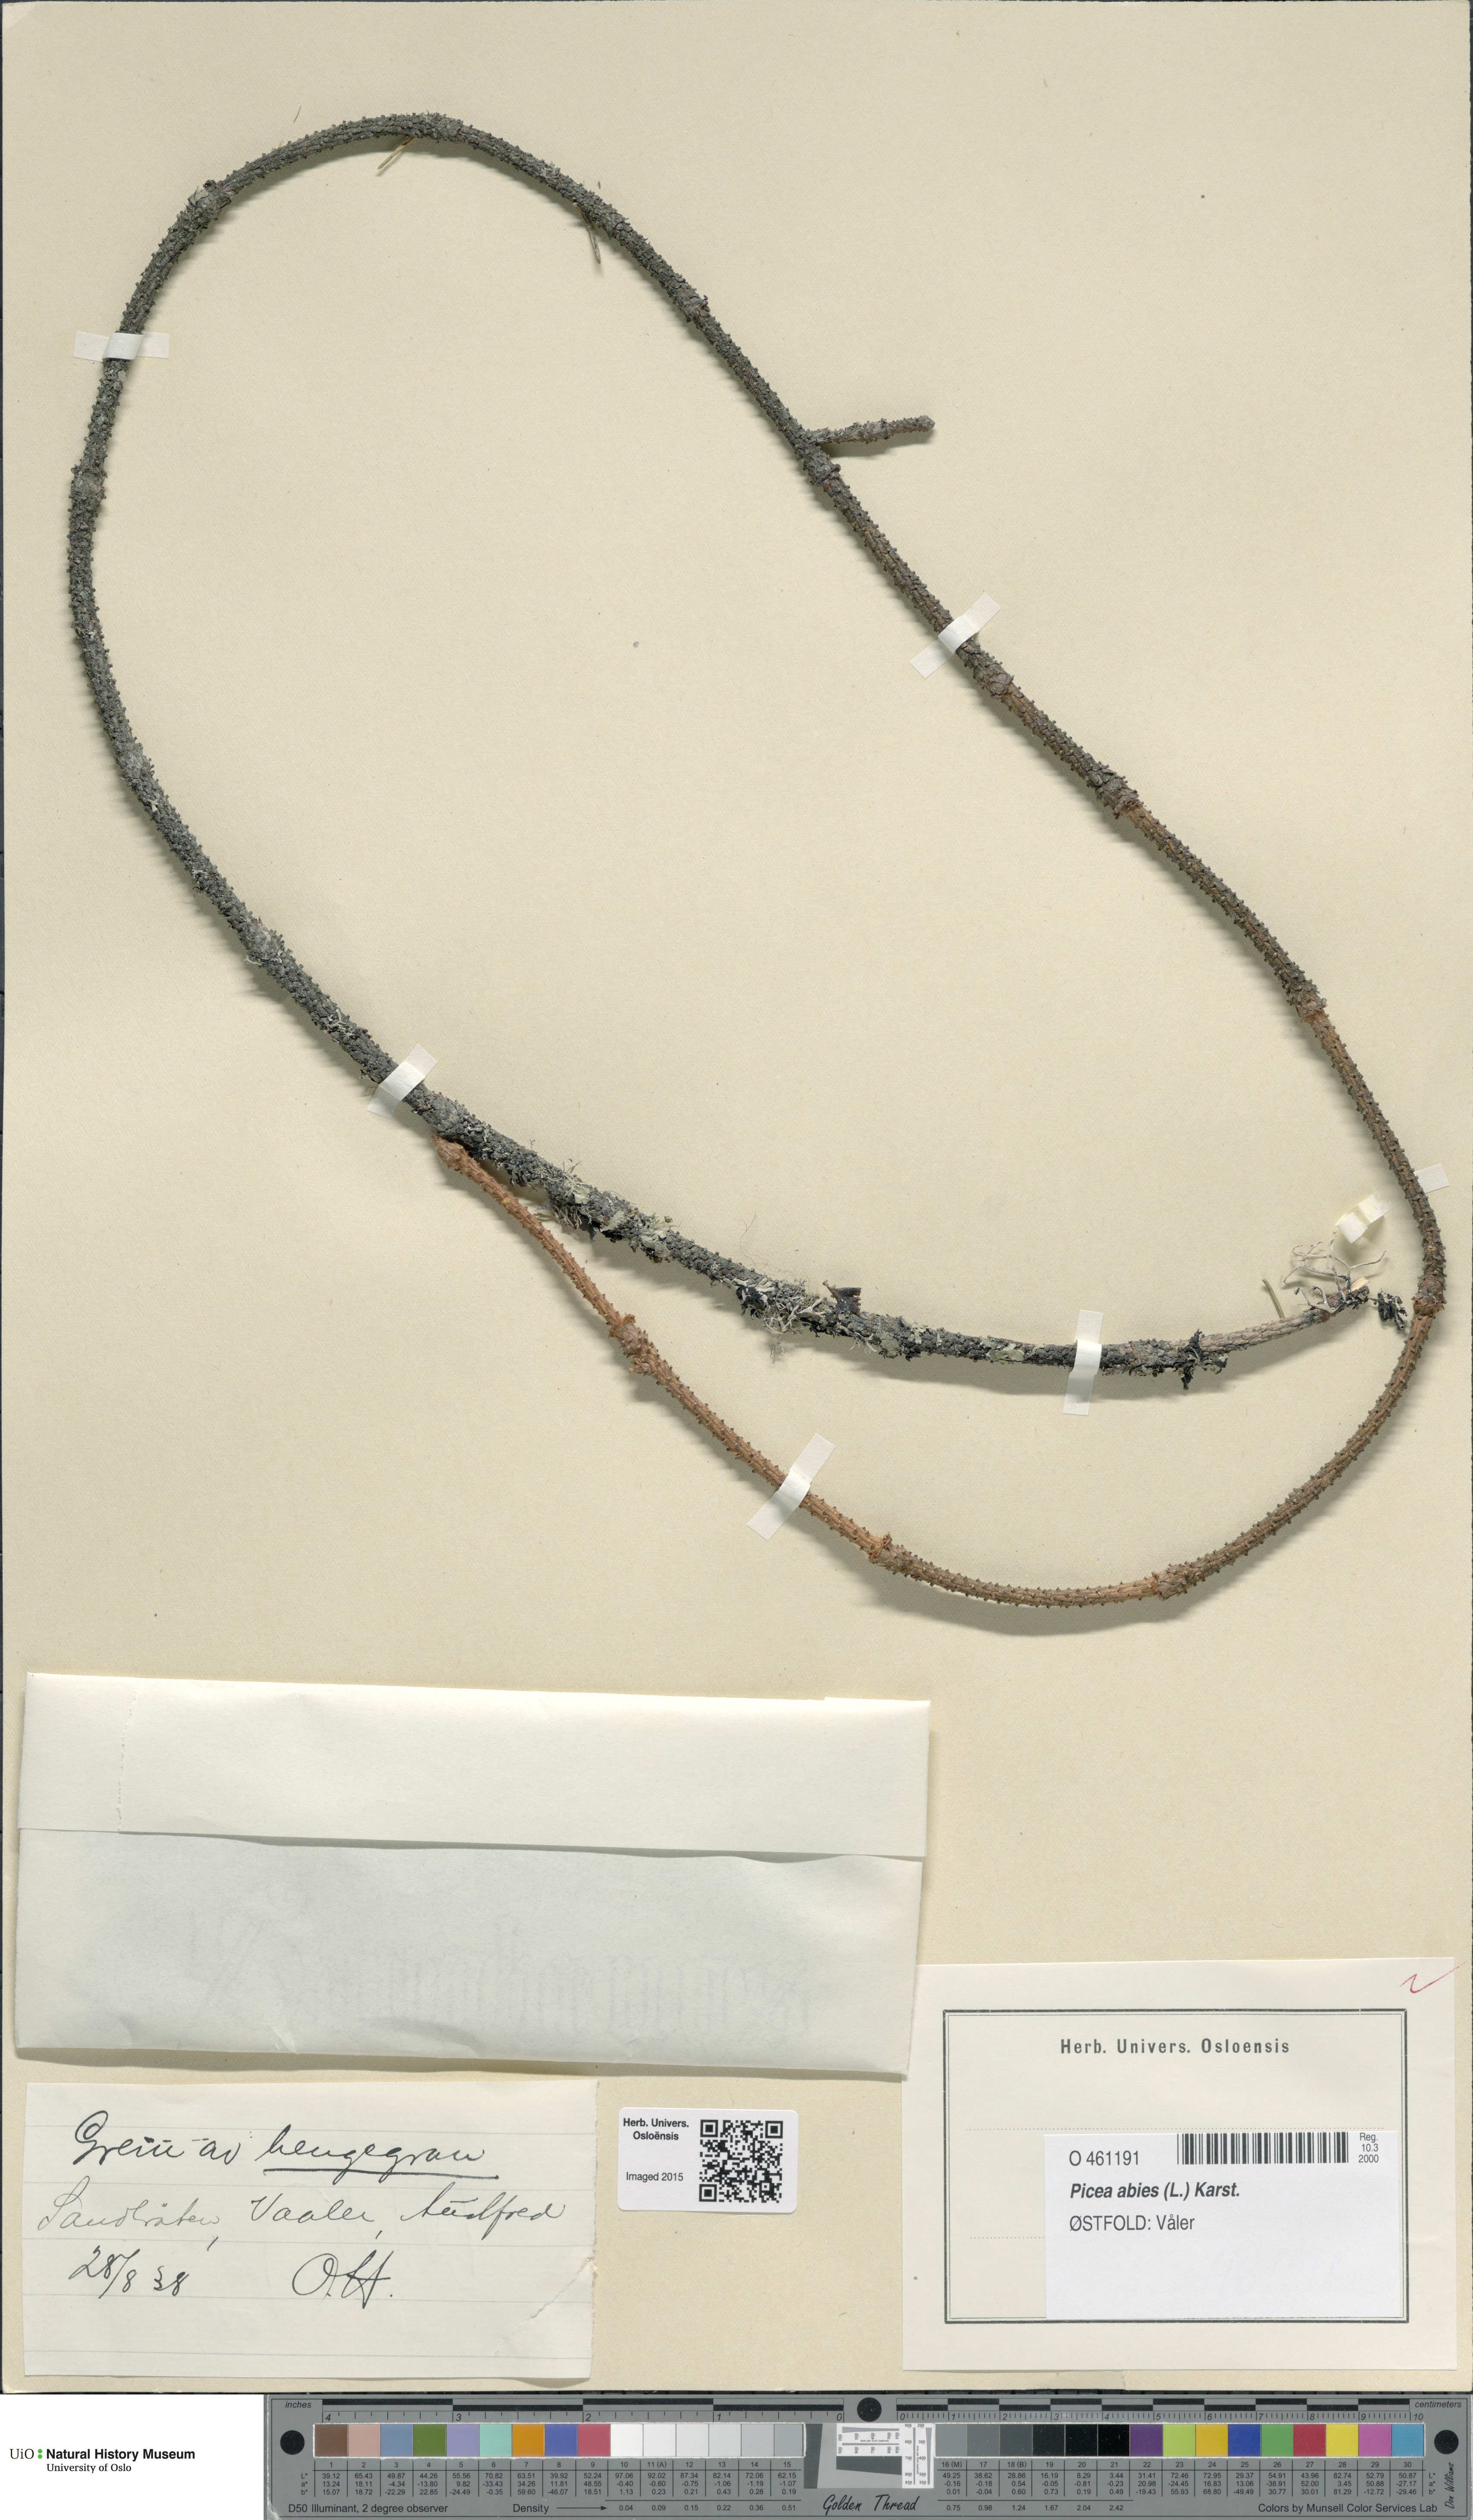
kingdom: Plantae
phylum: Tracheophyta
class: Pinopsida
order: Pinales
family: Pinaceae
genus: Picea
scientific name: Picea abies
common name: Norway spruce
